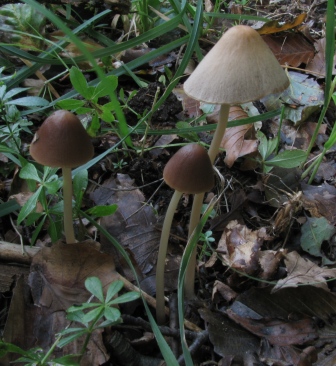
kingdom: Fungi
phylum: Basidiomycota
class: Agaricomycetes
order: Agaricales
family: Psathyrellaceae
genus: Parasola
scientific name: Parasola conopilea
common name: kegle-hjulhat
